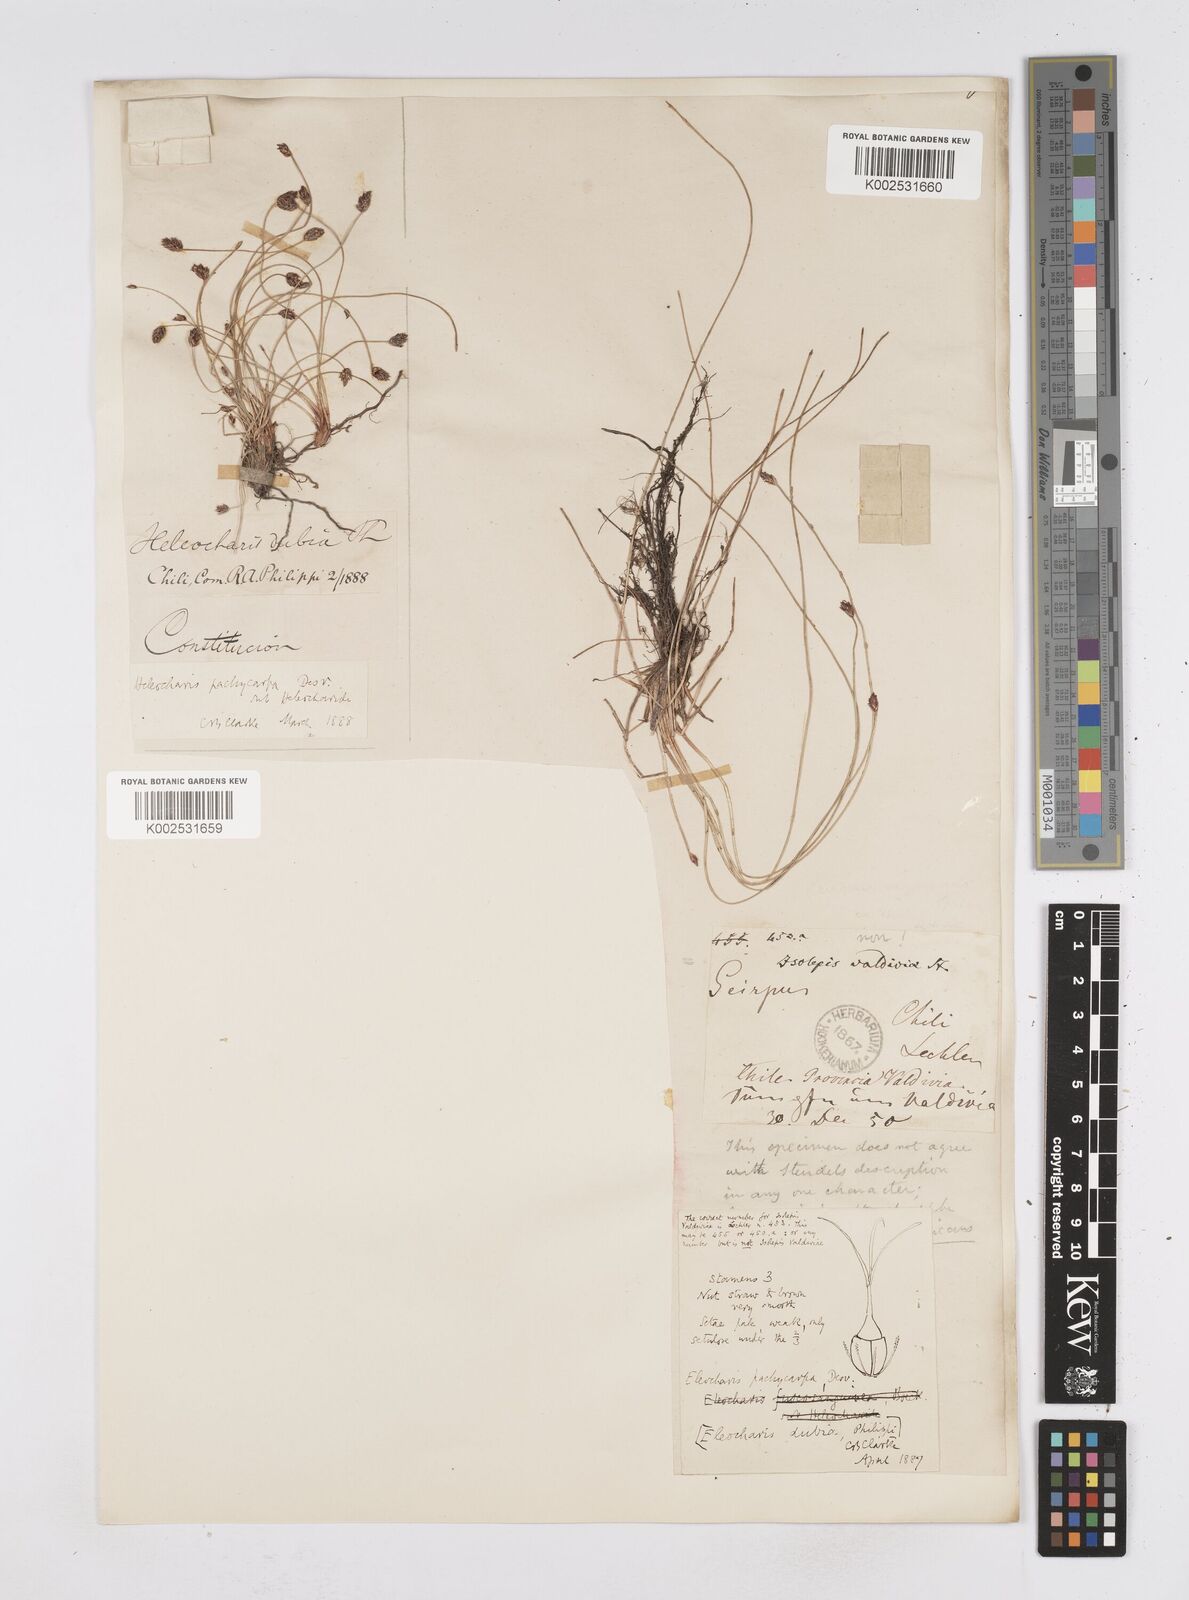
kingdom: Plantae
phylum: Tracheophyta
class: Liliopsida
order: Poales
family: Cyperaceae
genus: Eleocharis
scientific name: Eleocharis pachycarpa
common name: Black sand spikerush
